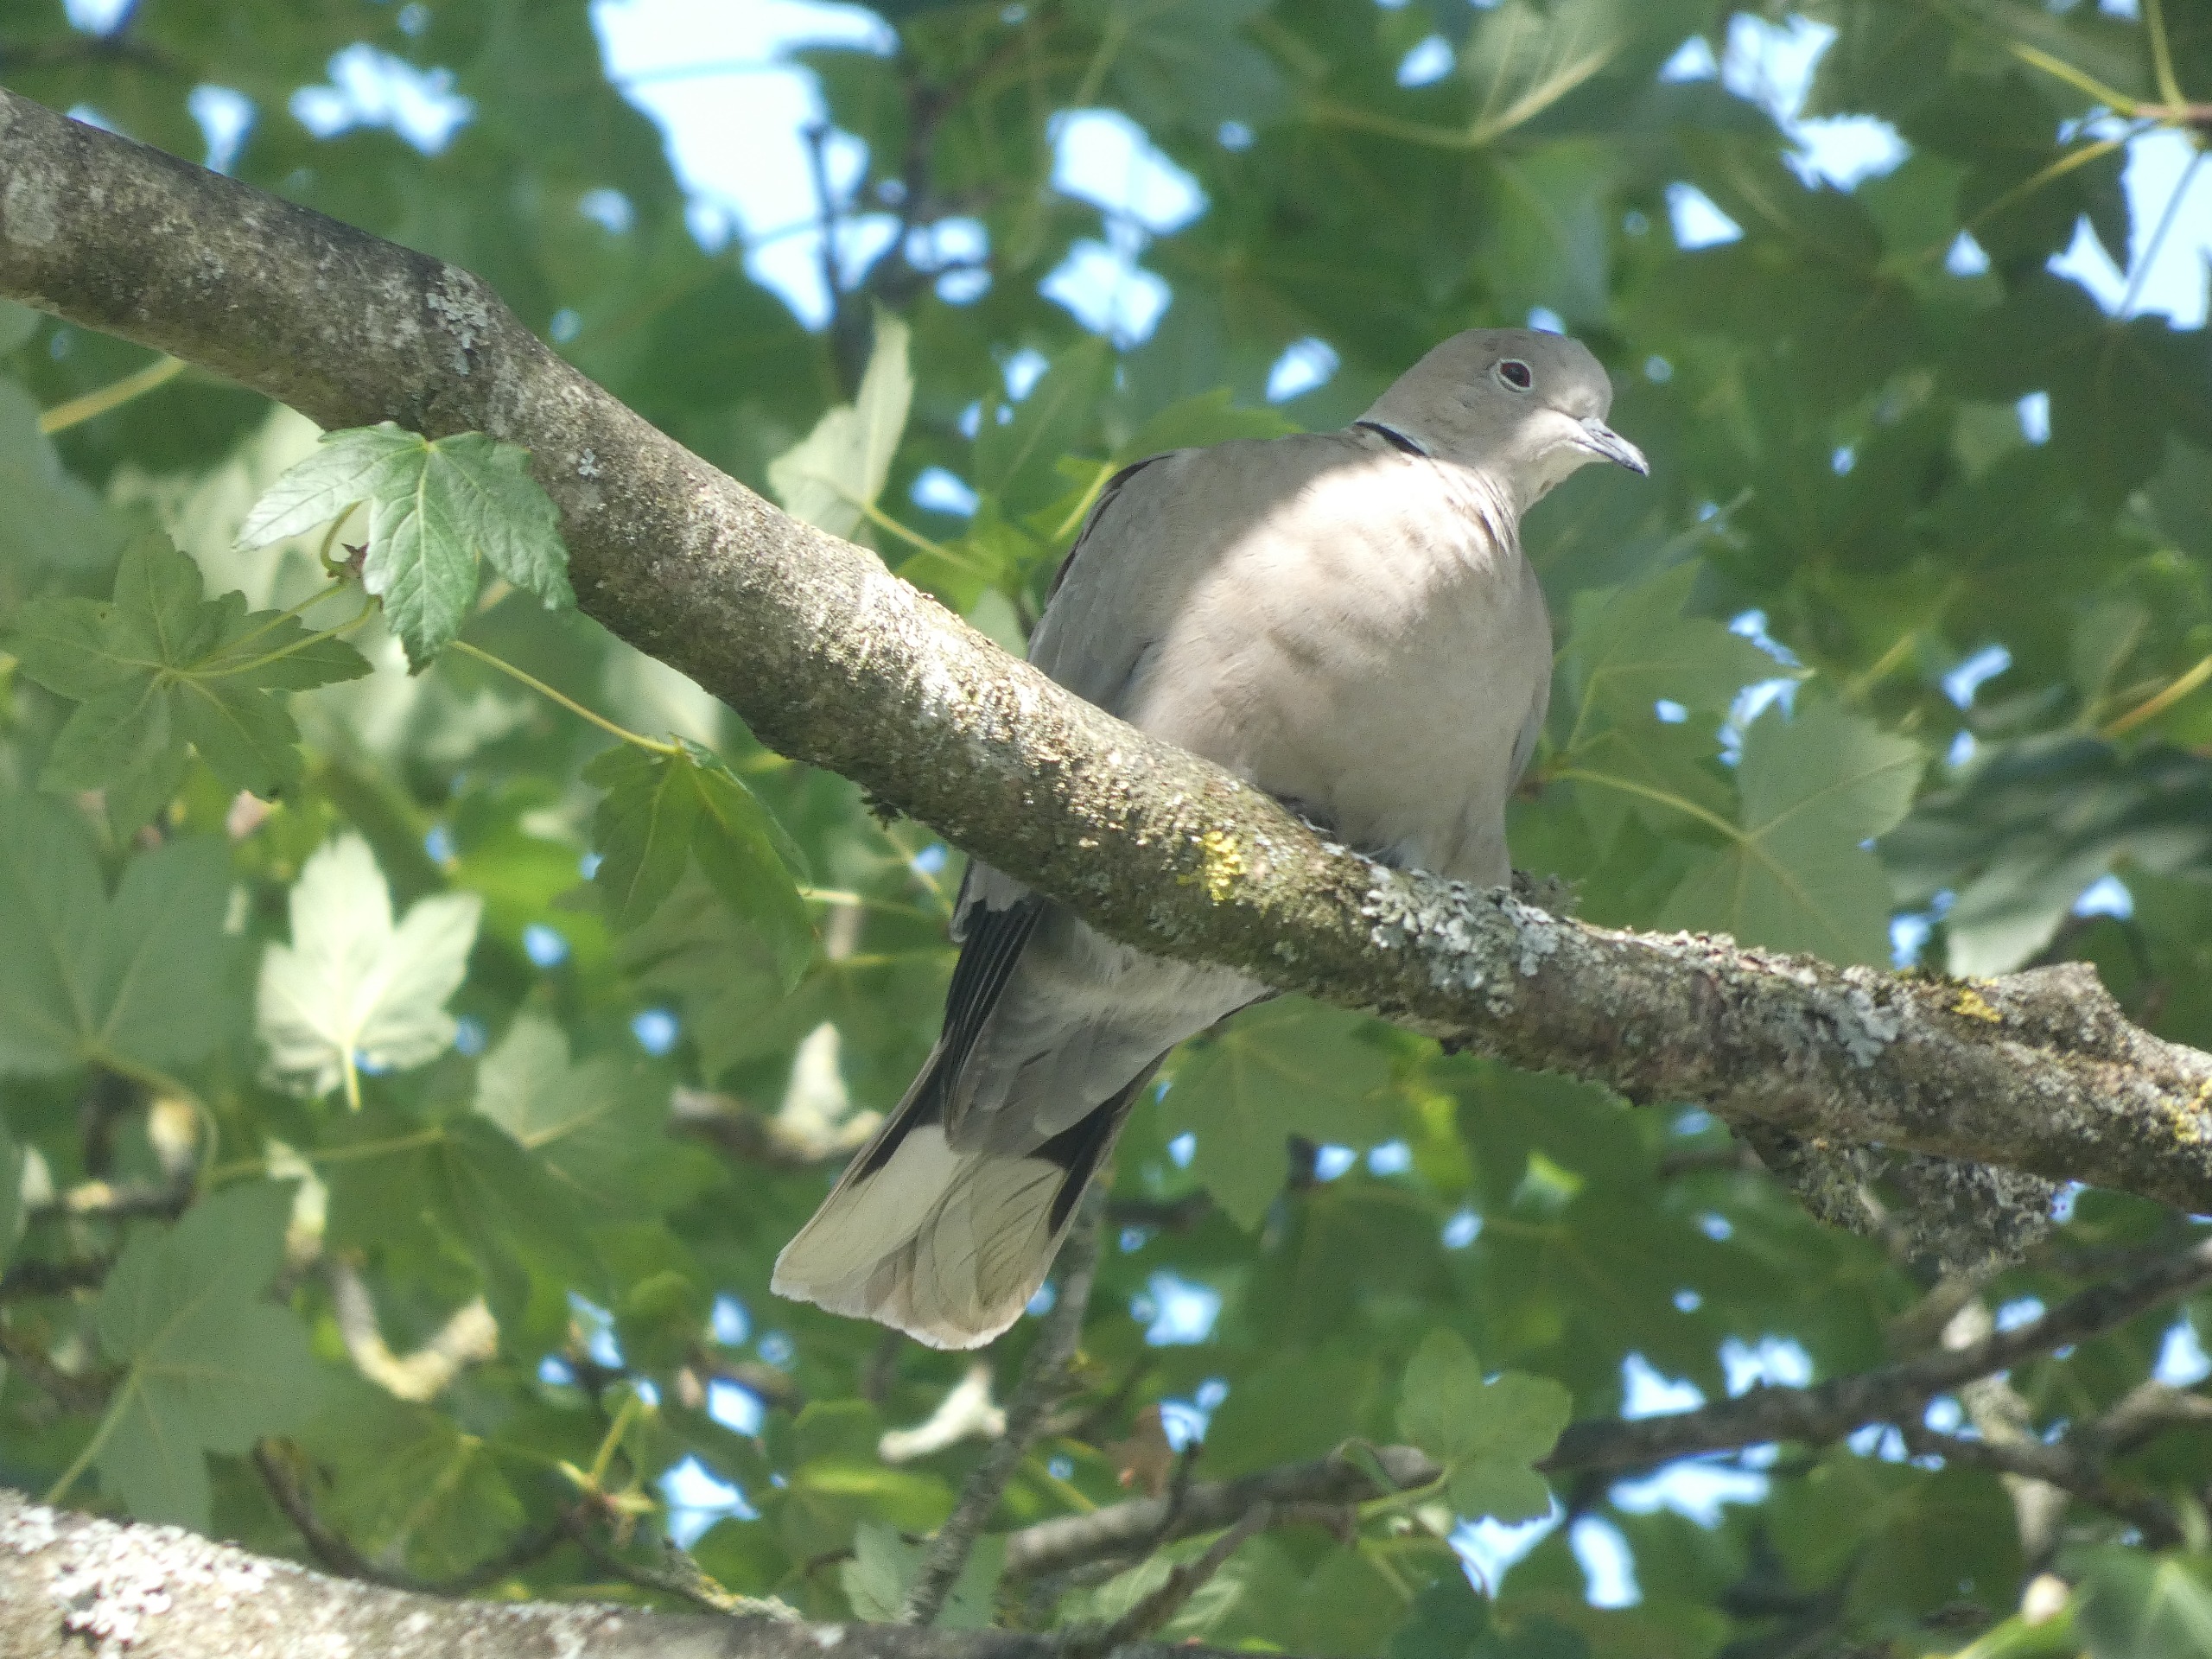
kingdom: Animalia
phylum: Chordata
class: Aves
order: Columbiformes
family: Columbidae
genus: Streptopelia
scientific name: Streptopelia decaocto
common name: Tyrkerdue
